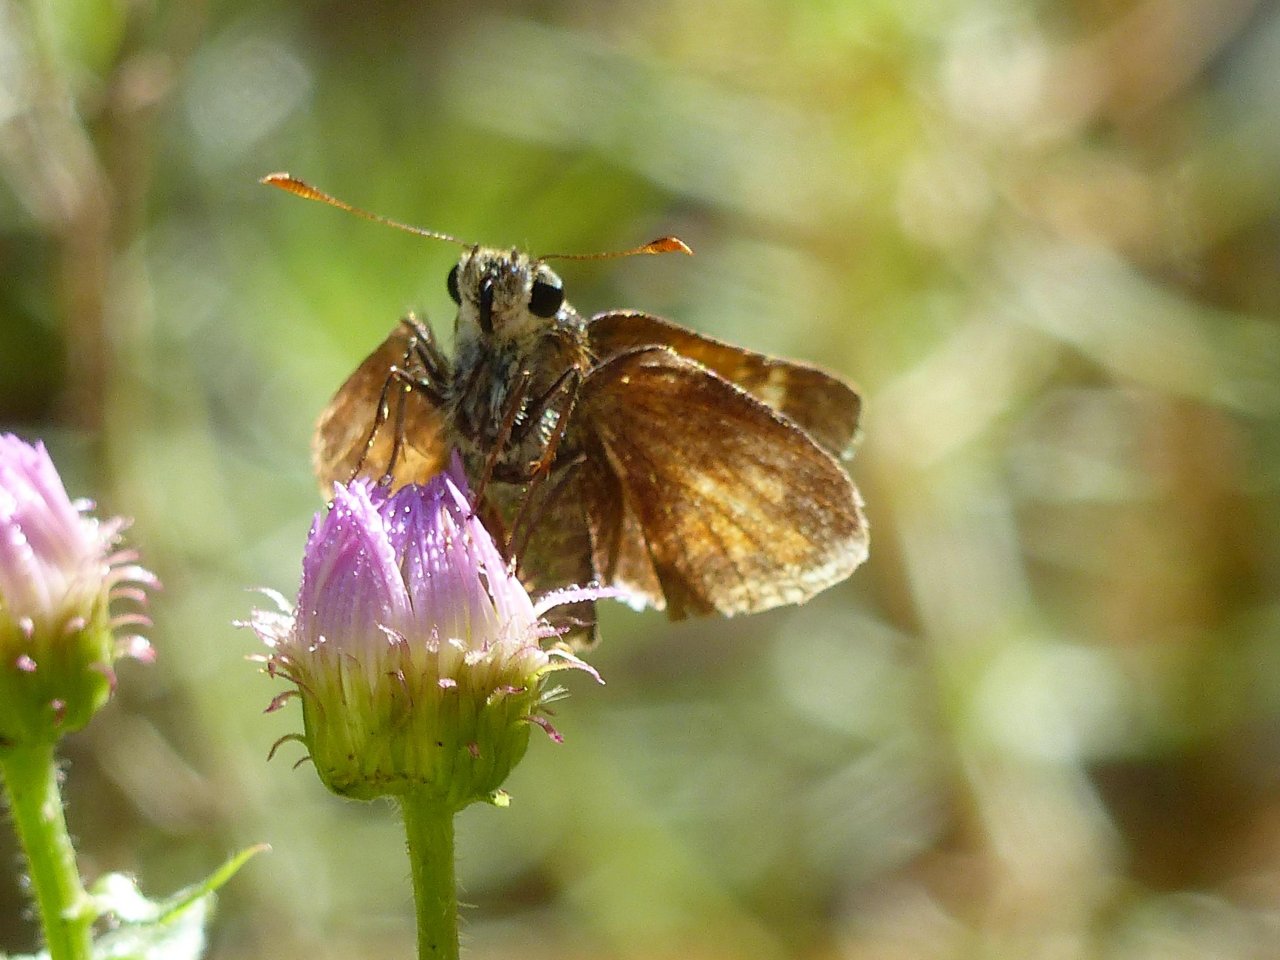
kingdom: Animalia
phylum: Arthropoda
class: Insecta
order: Lepidoptera
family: Hesperiidae
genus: Lon
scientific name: Lon taxiles
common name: Taxiles Skipper
